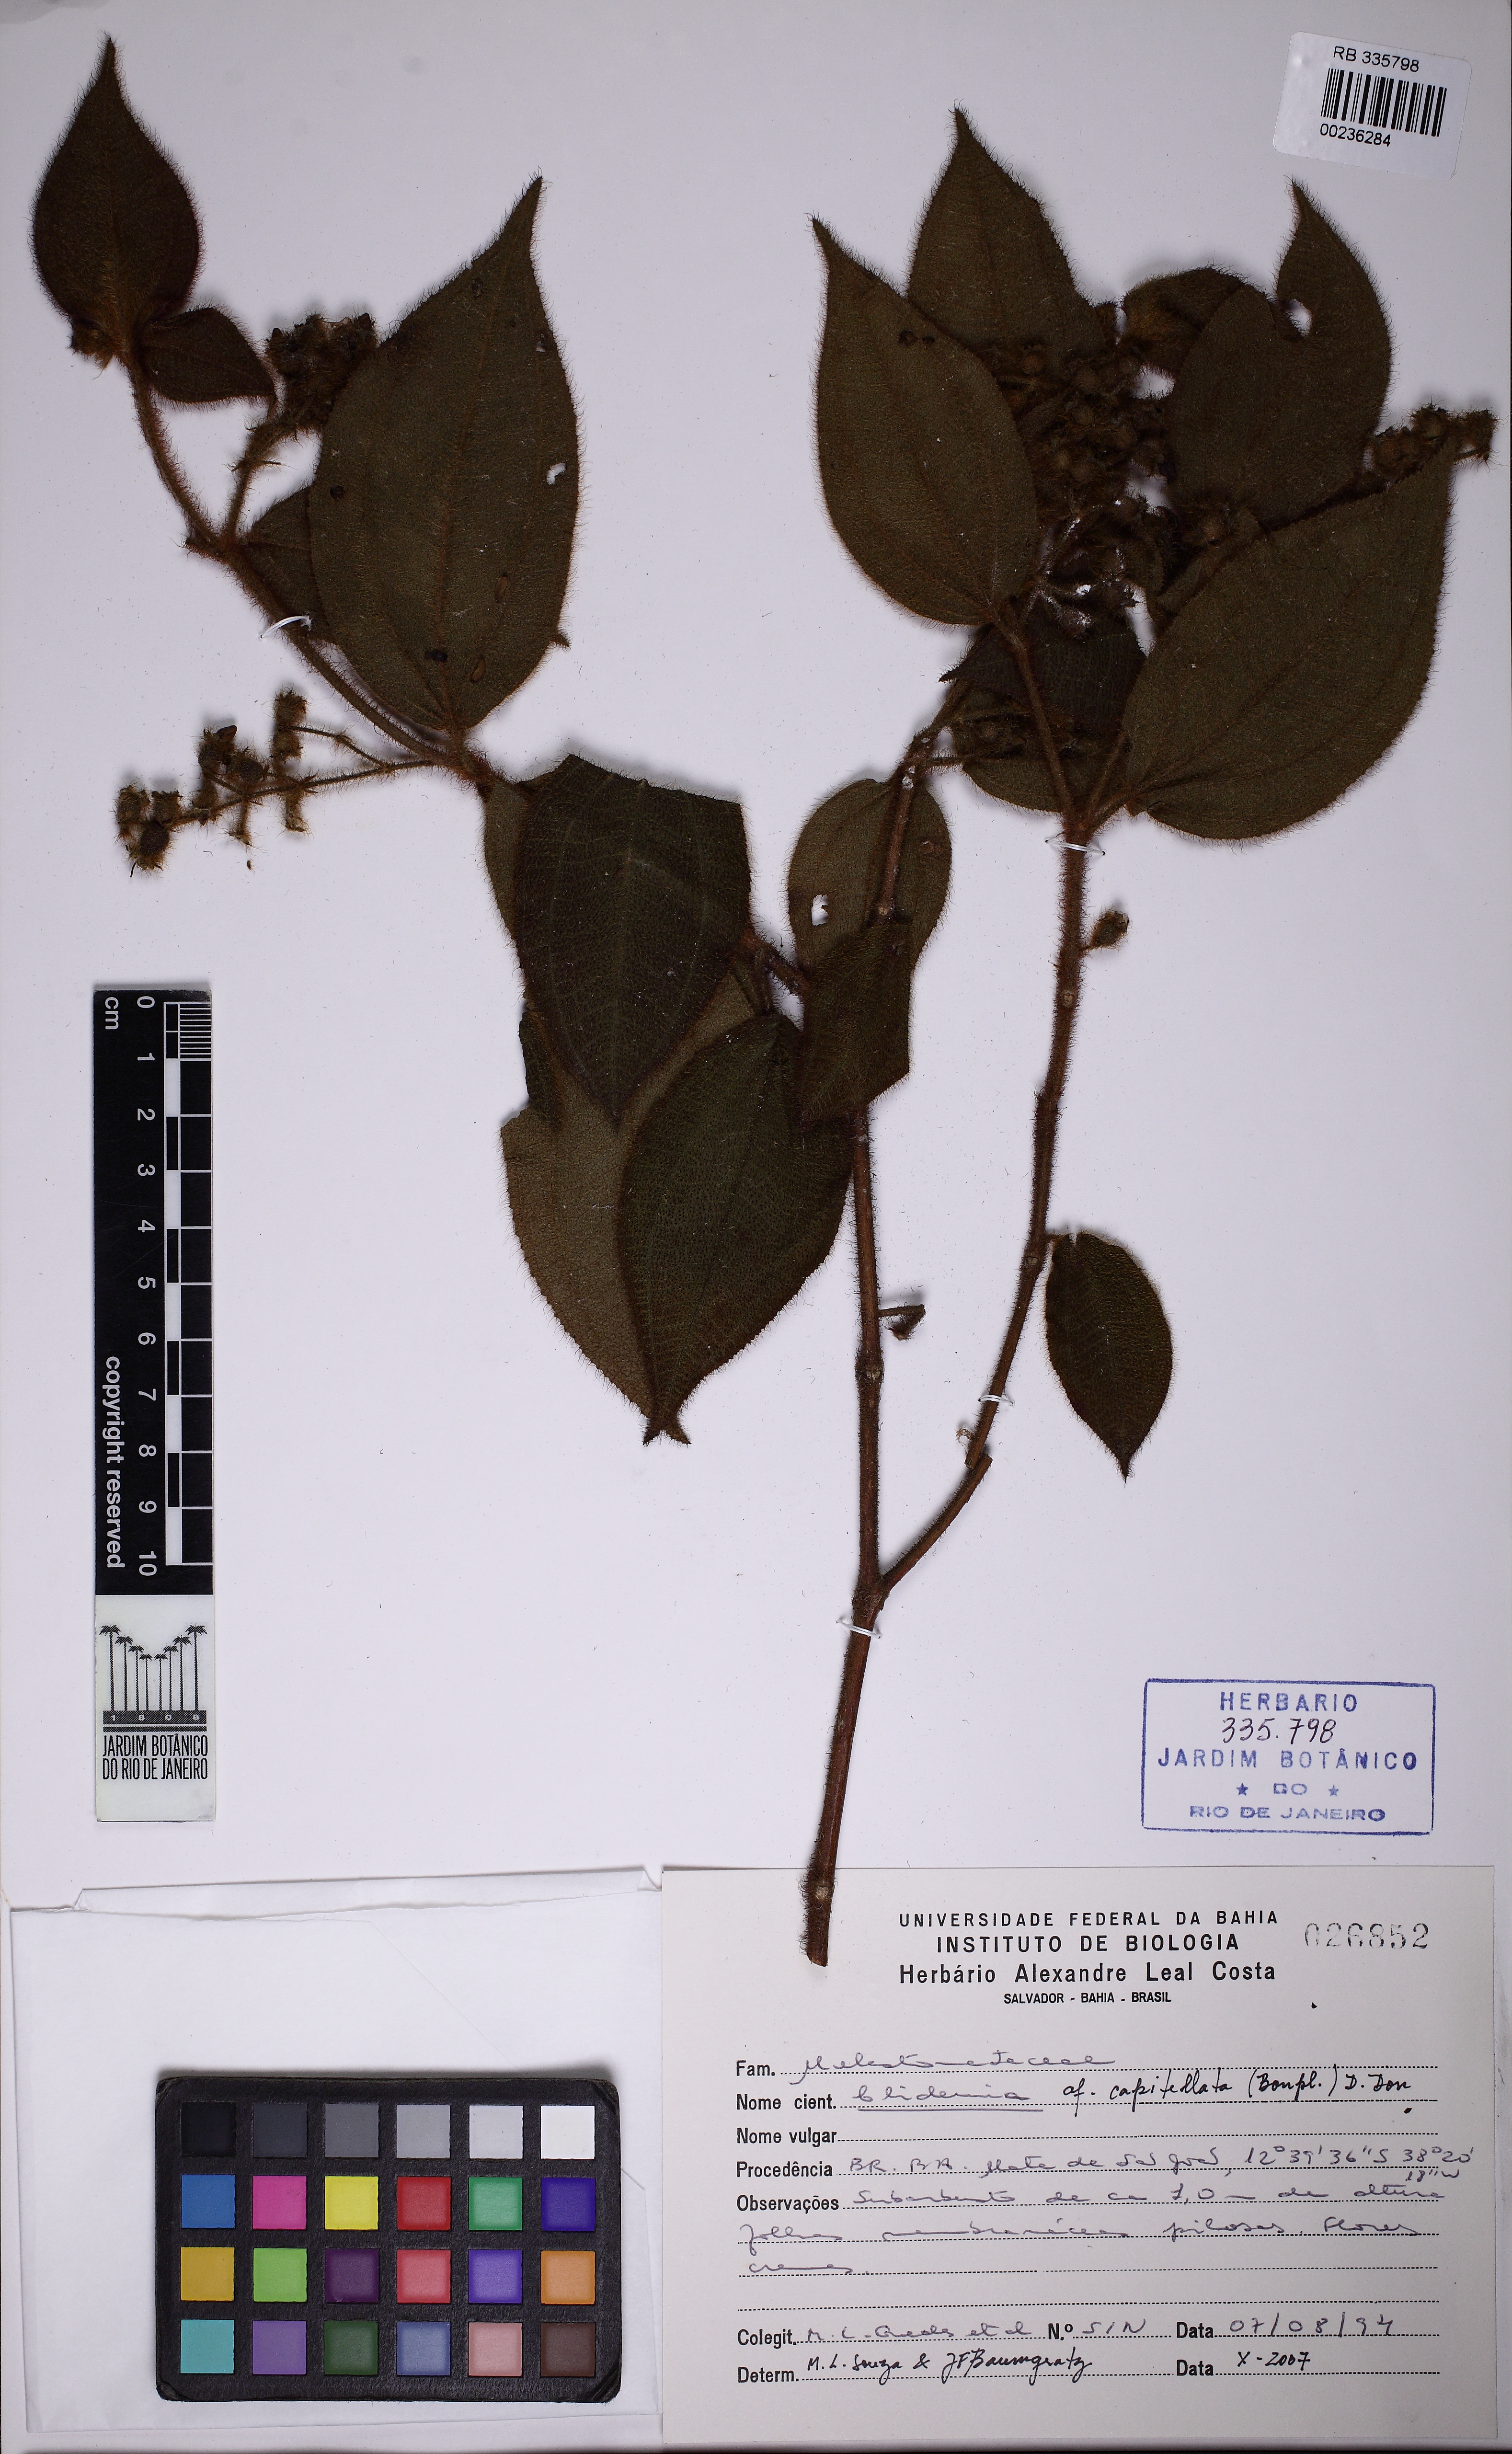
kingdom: Plantae
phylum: Tracheophyta
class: Magnoliopsida
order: Myrtales
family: Melastomataceae
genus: Miconia
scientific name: Miconia dependens
